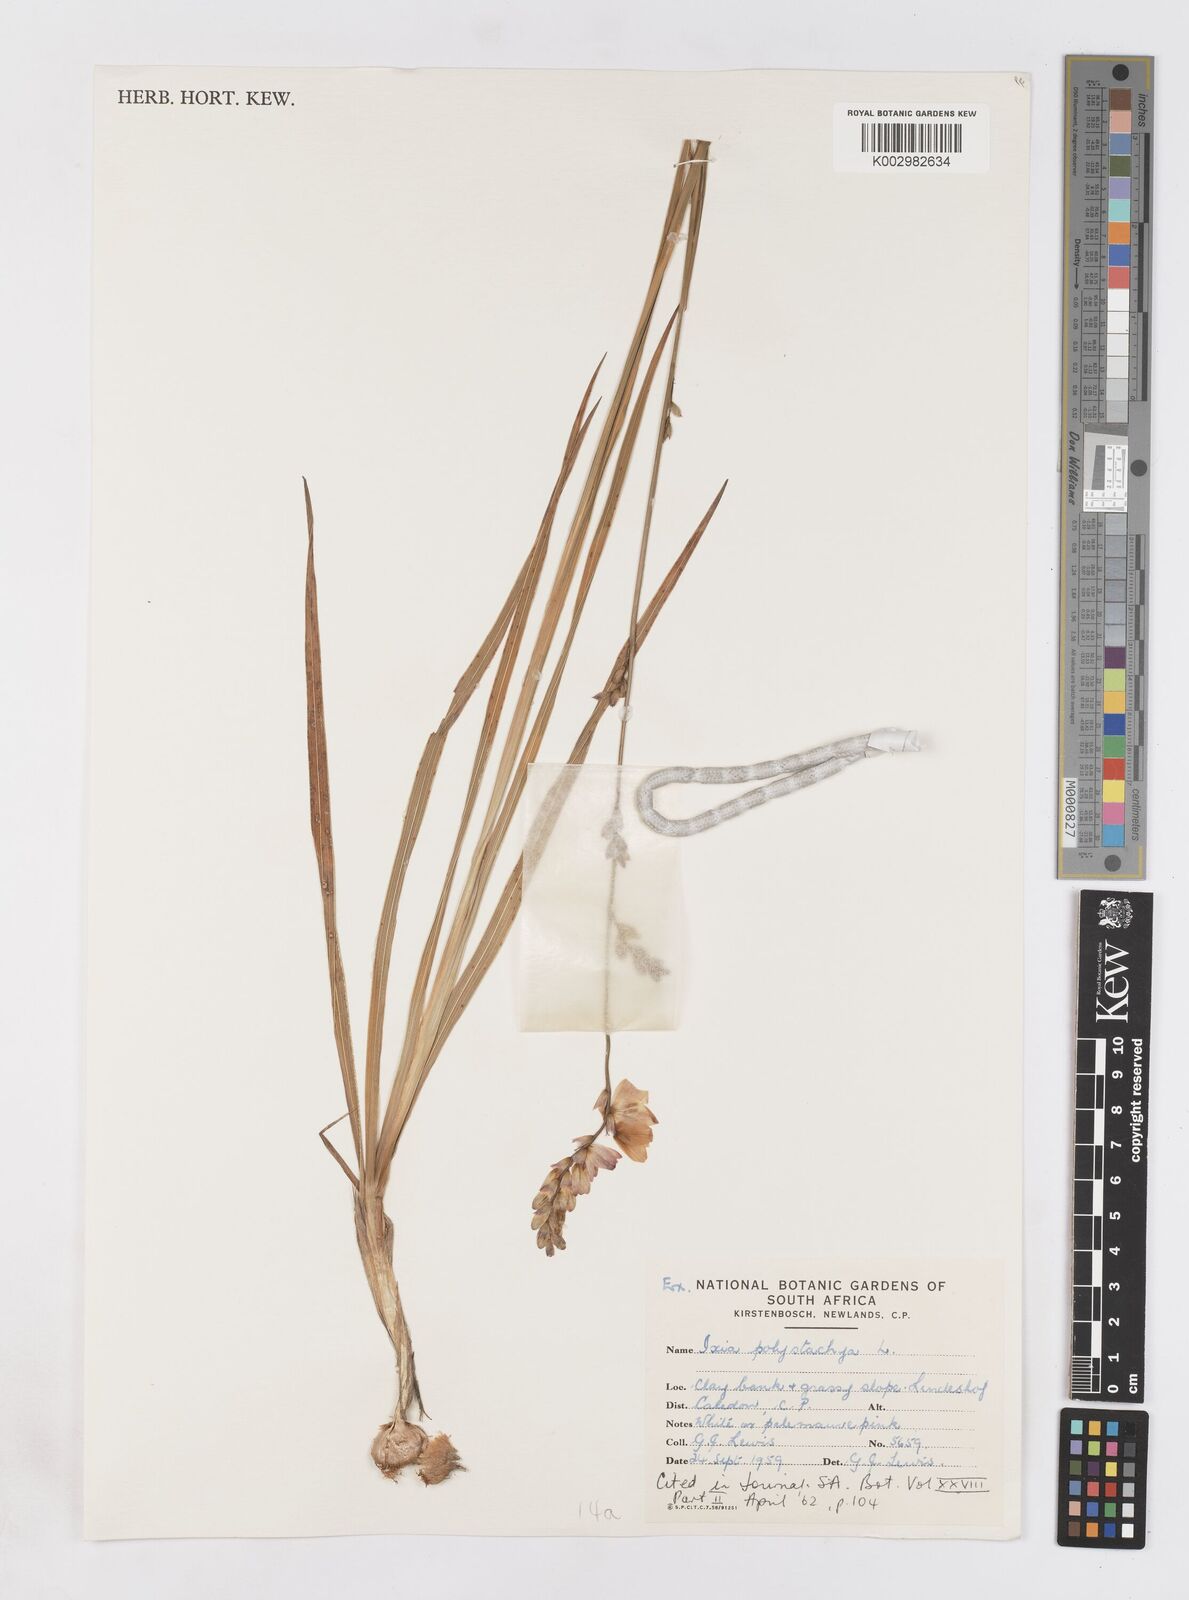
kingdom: Plantae
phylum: Tracheophyta
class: Liliopsida
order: Asparagales
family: Iridaceae
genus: Ixia
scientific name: Ixia polystachya
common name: White-and-yellow-flower cornlily
